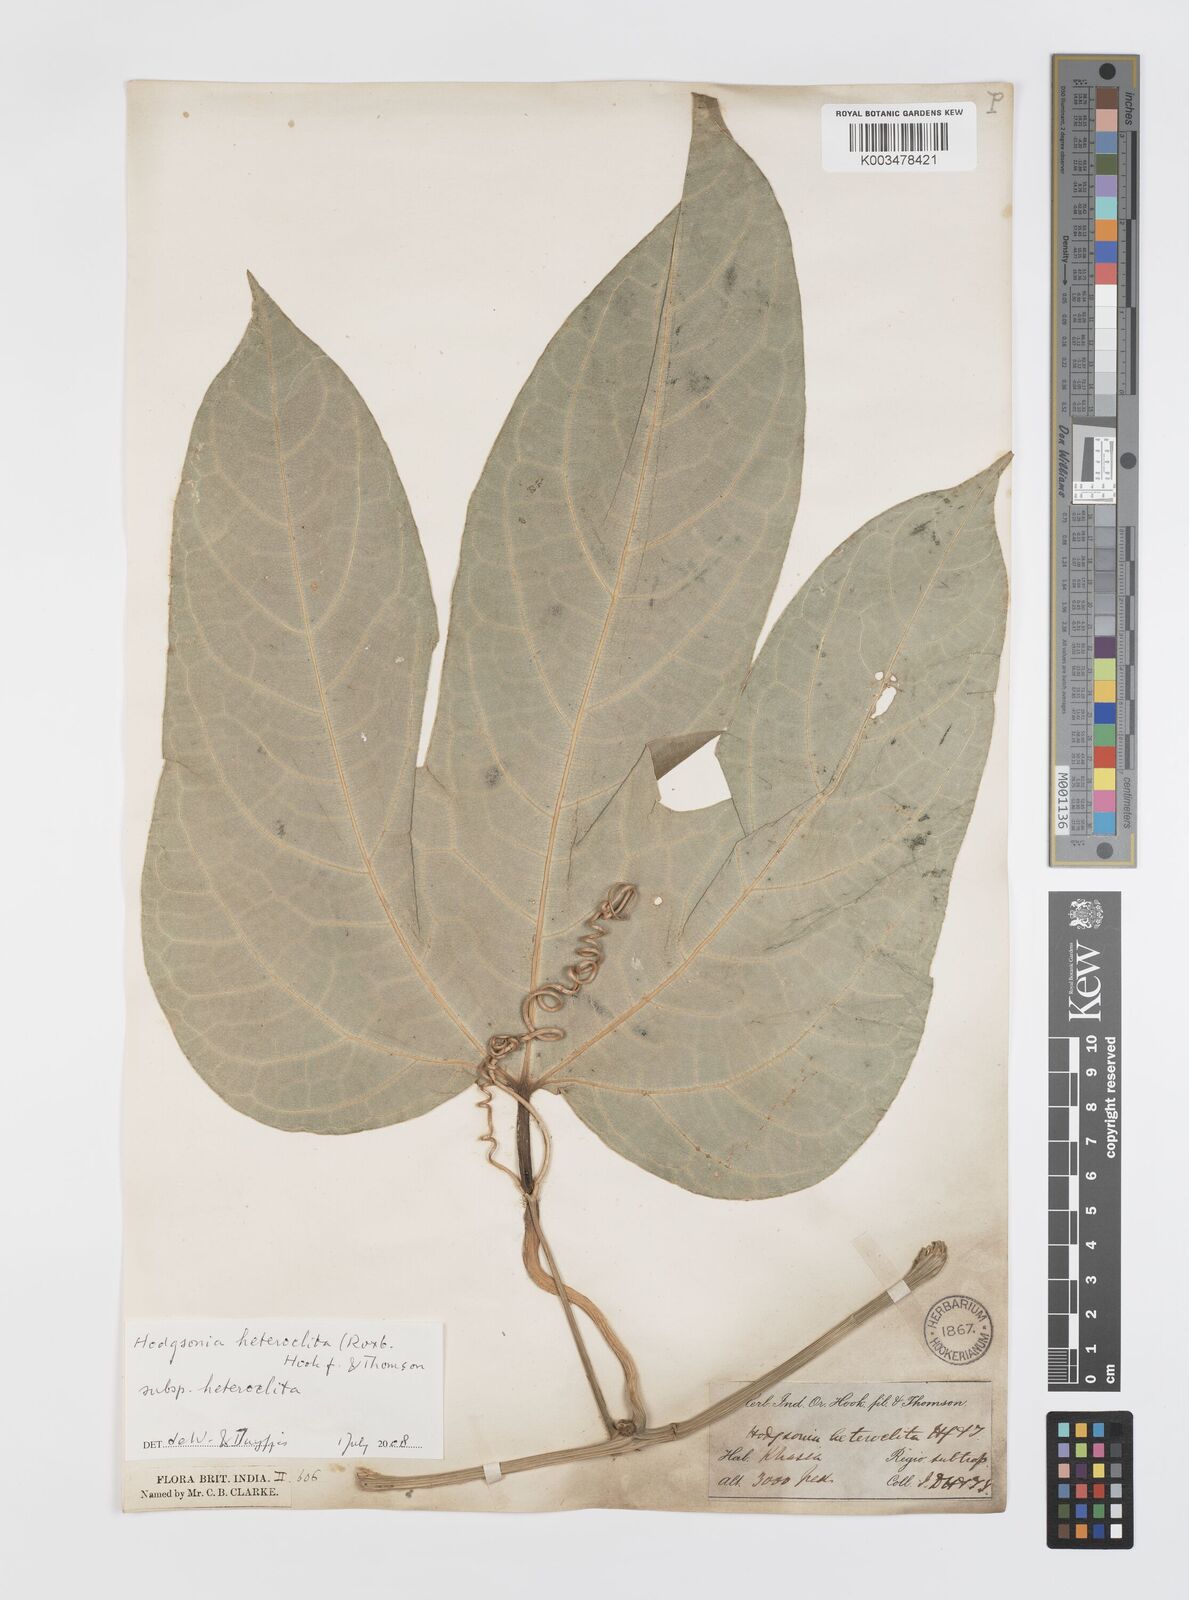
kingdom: Plantae
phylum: Tracheophyta
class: Magnoliopsida
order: Cucurbitales
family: Cucurbitaceae
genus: Hodgsonia
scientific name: Hodgsonia macrocarpa
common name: Chinese lardfruit
